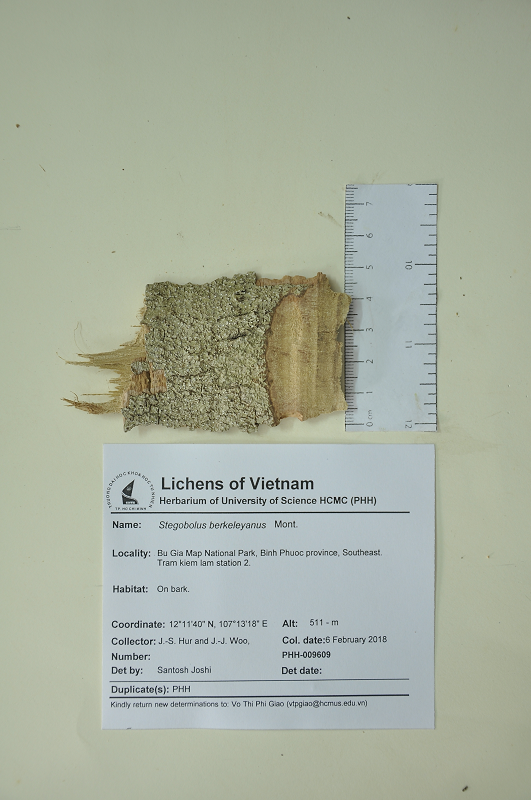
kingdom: Fungi
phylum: Ascomycota
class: Lecanoromycetes
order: Ostropales
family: Graphidaceae
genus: Thelotrema
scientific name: Thelotrema berkeleyanum
